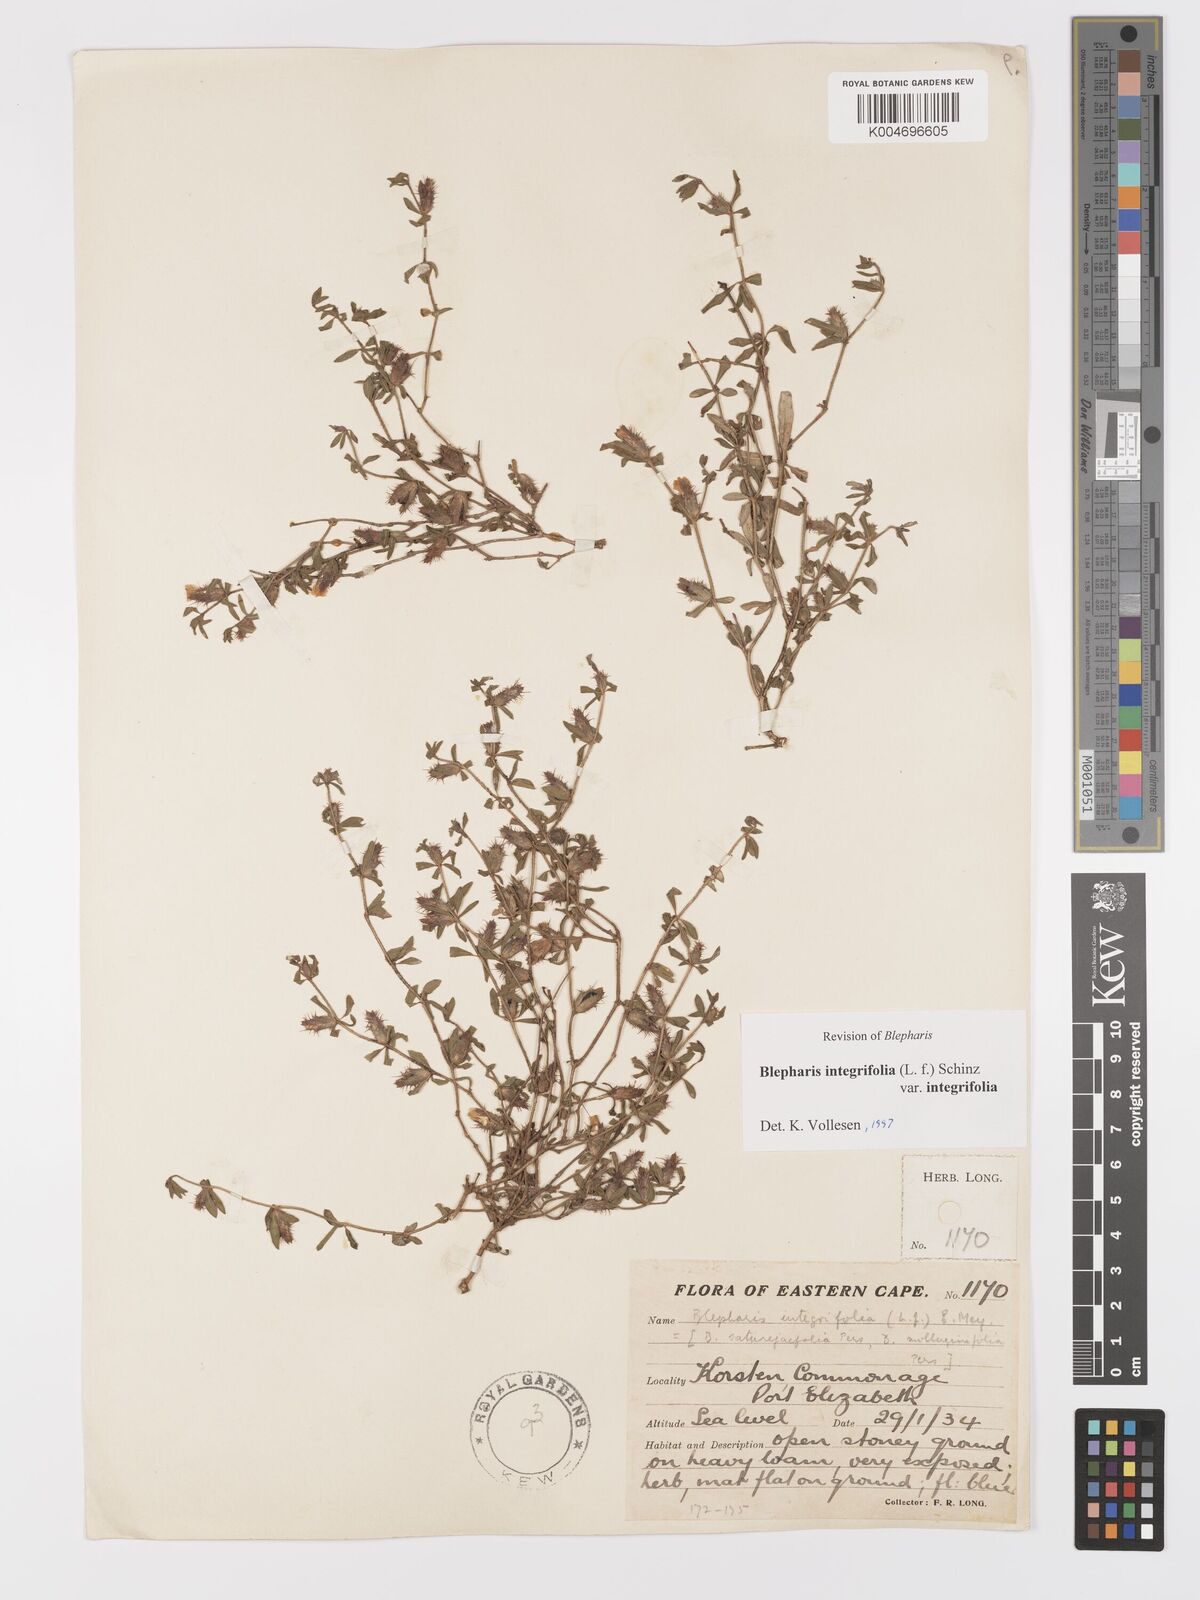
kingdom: Plantae
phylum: Tracheophyta
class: Magnoliopsida
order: Lamiales
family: Acanthaceae
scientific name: Acanthaceae
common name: Acanthaceae
